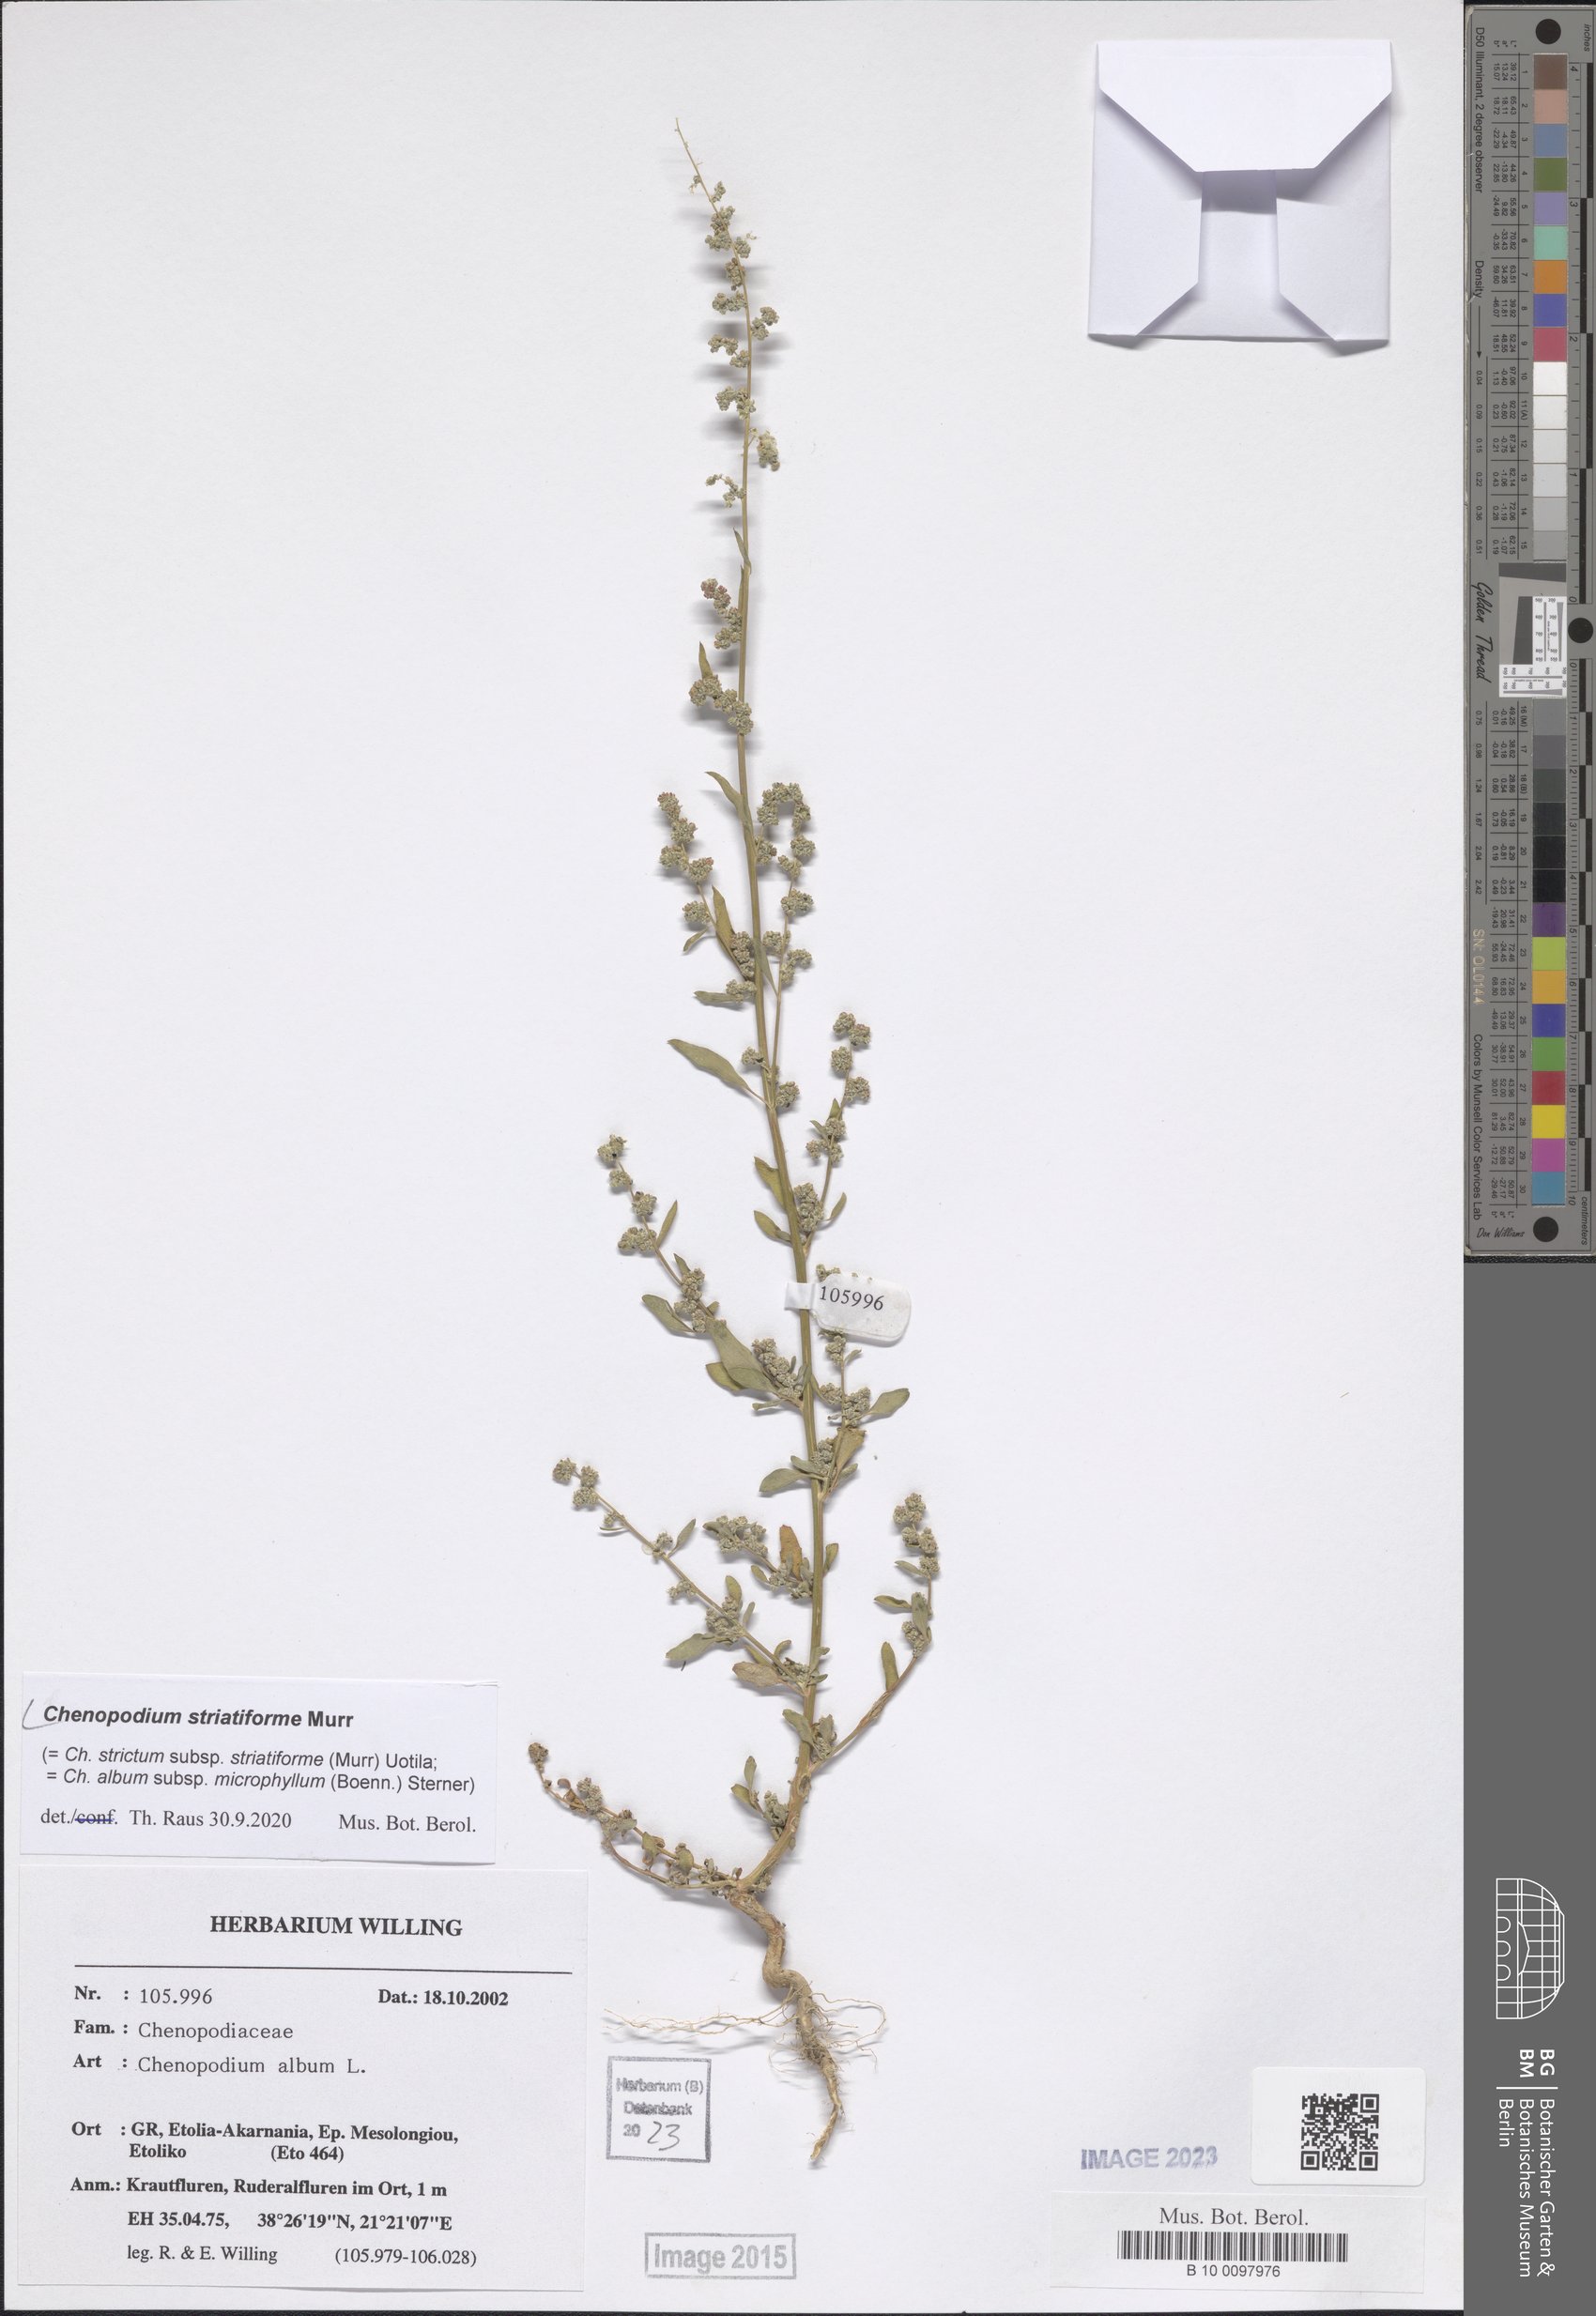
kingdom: Plantae
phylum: Tracheophyta
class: Magnoliopsida
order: Caryophyllales
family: Amaranthaceae
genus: Chenopodium
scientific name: Chenopodium striatiforme
